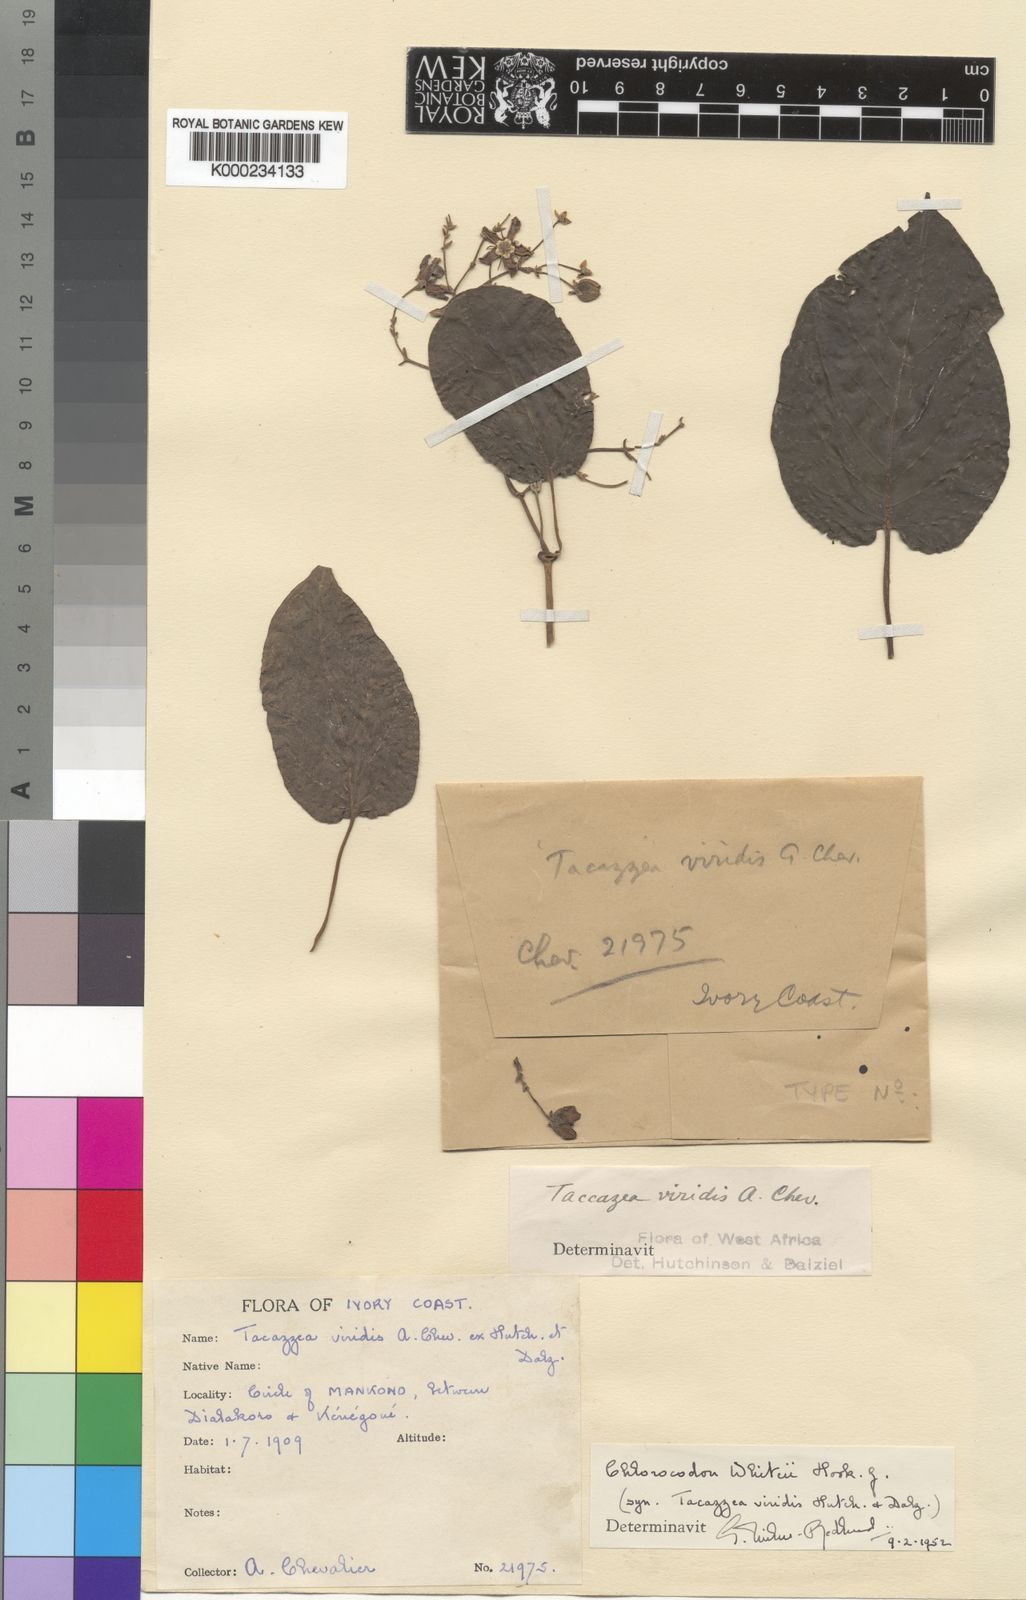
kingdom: Plantae
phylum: Tracheophyta
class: Magnoliopsida
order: Gentianales
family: Apocynaceae
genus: Mondia
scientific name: Mondia whitei
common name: Mondia
